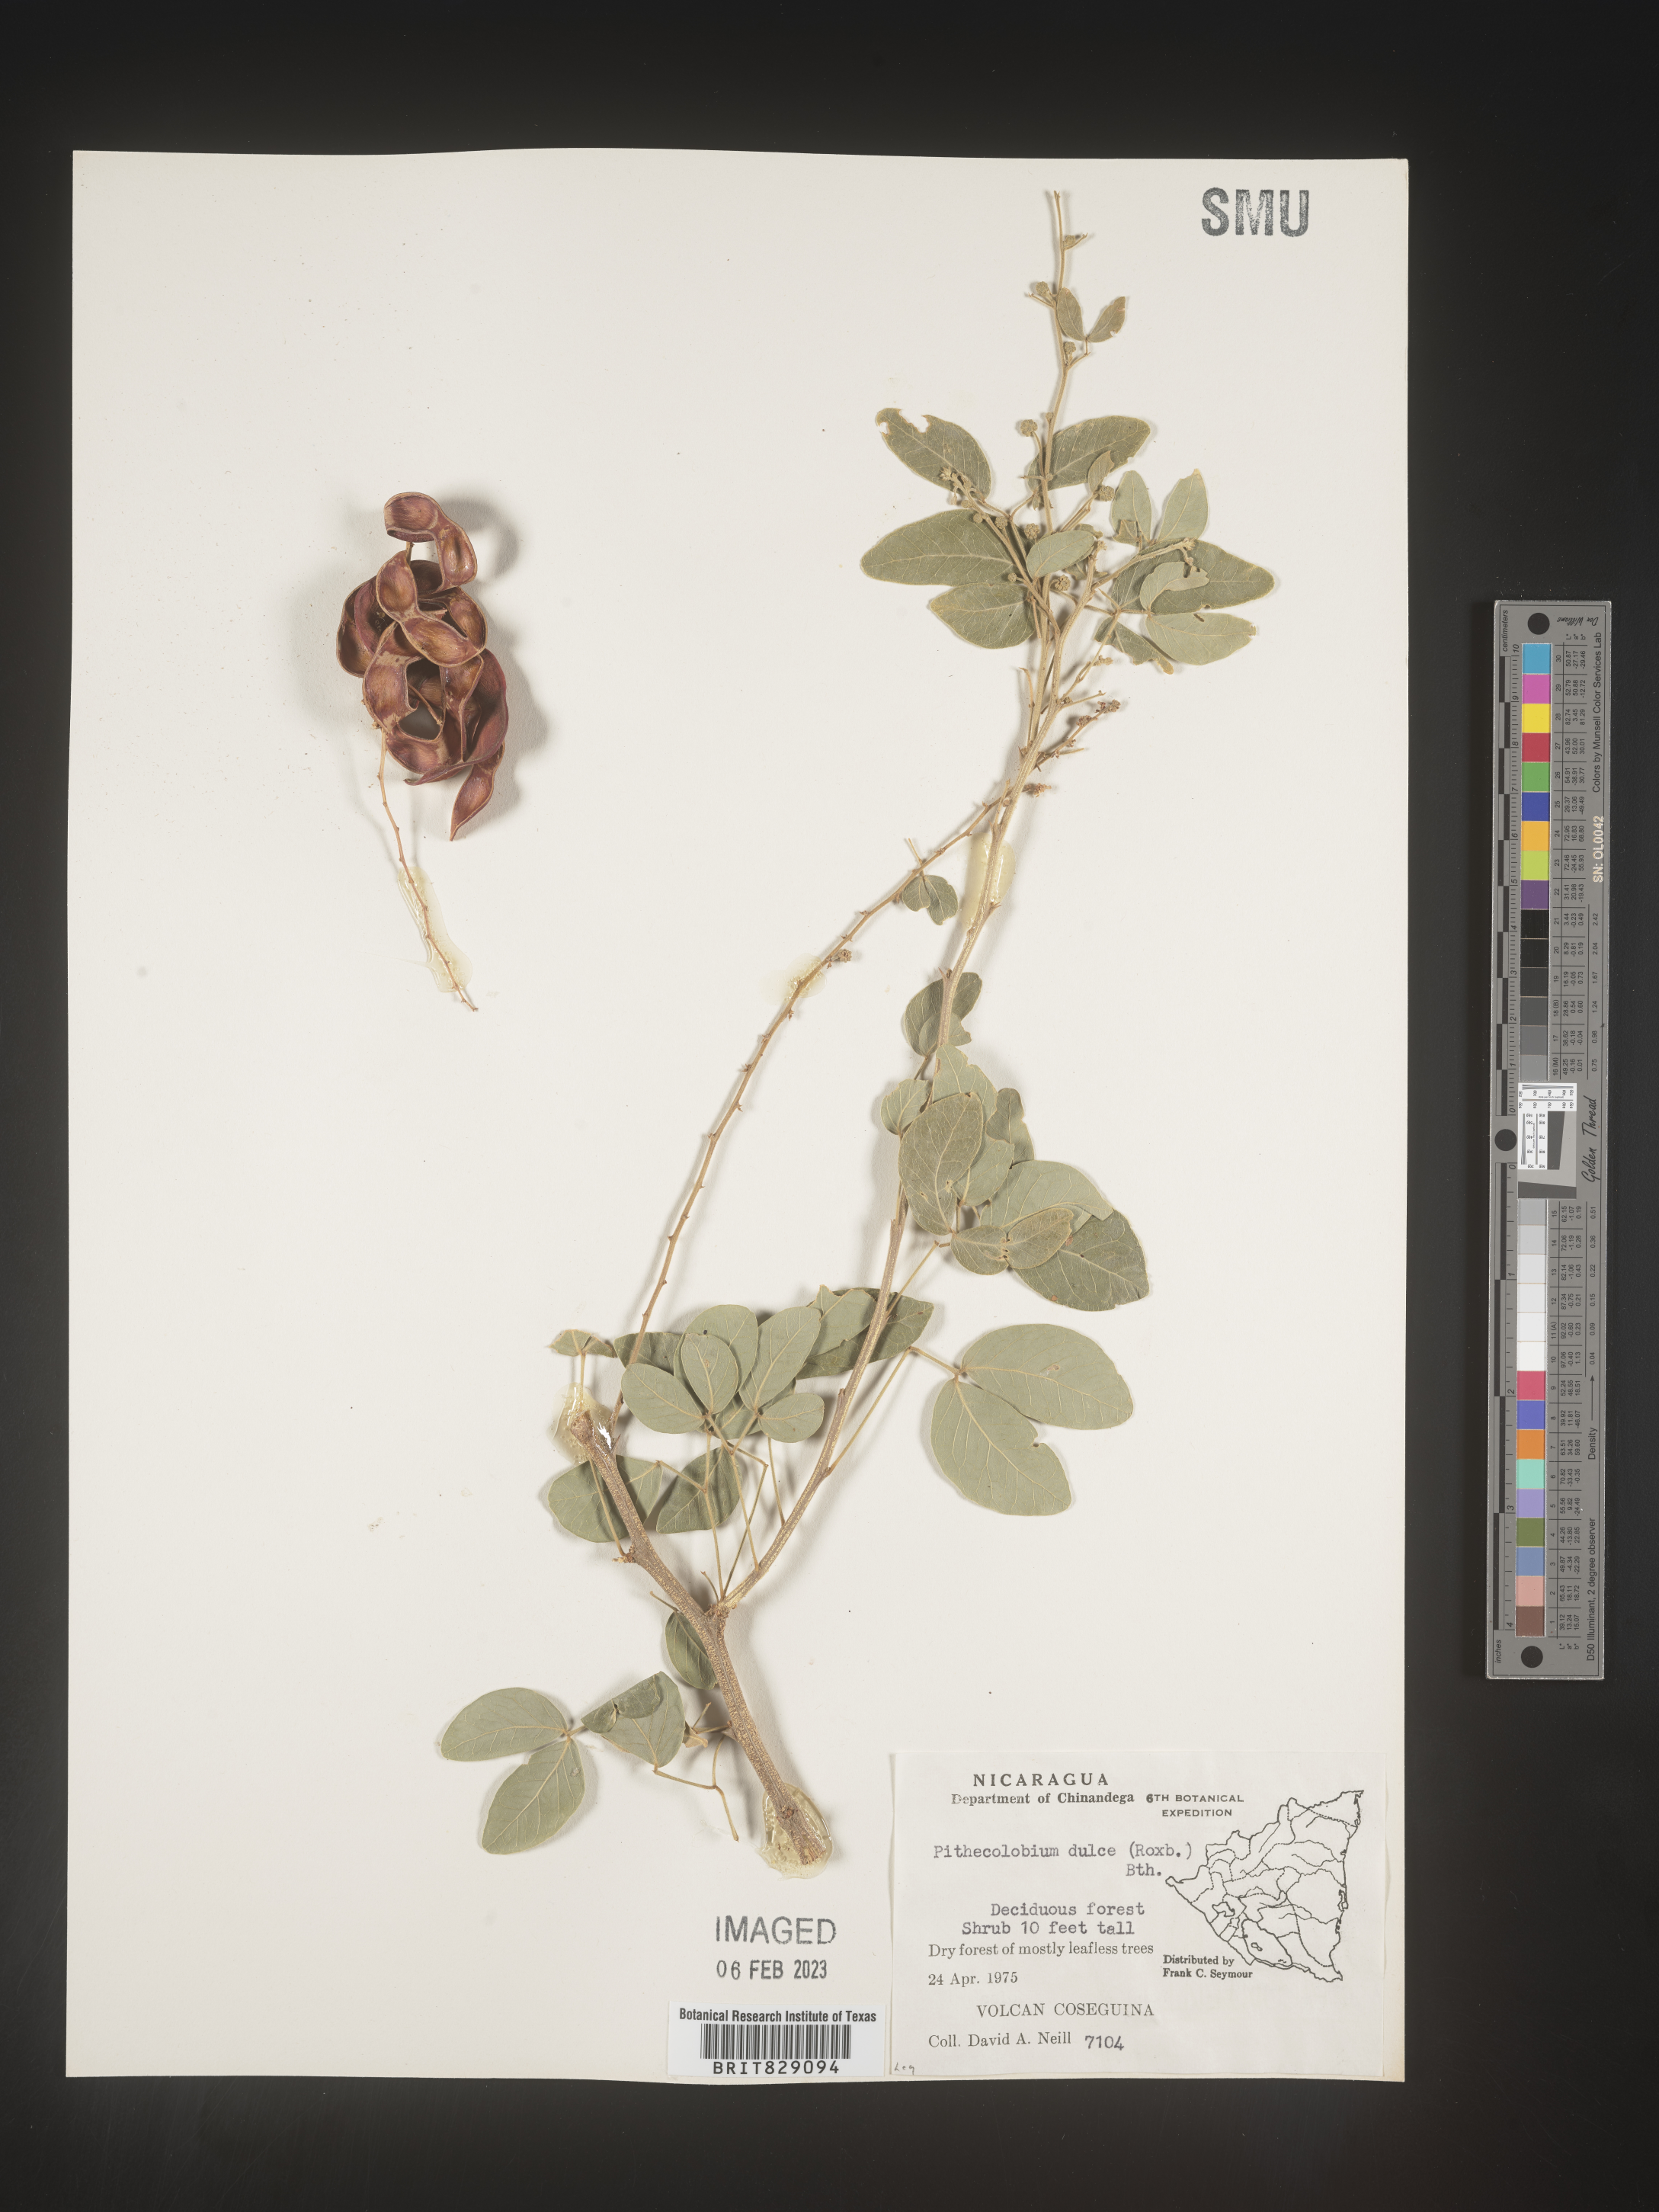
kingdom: Plantae
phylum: Tracheophyta
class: Magnoliopsida
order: Fabales
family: Fabaceae
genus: Pithecellobium
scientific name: Pithecellobium
